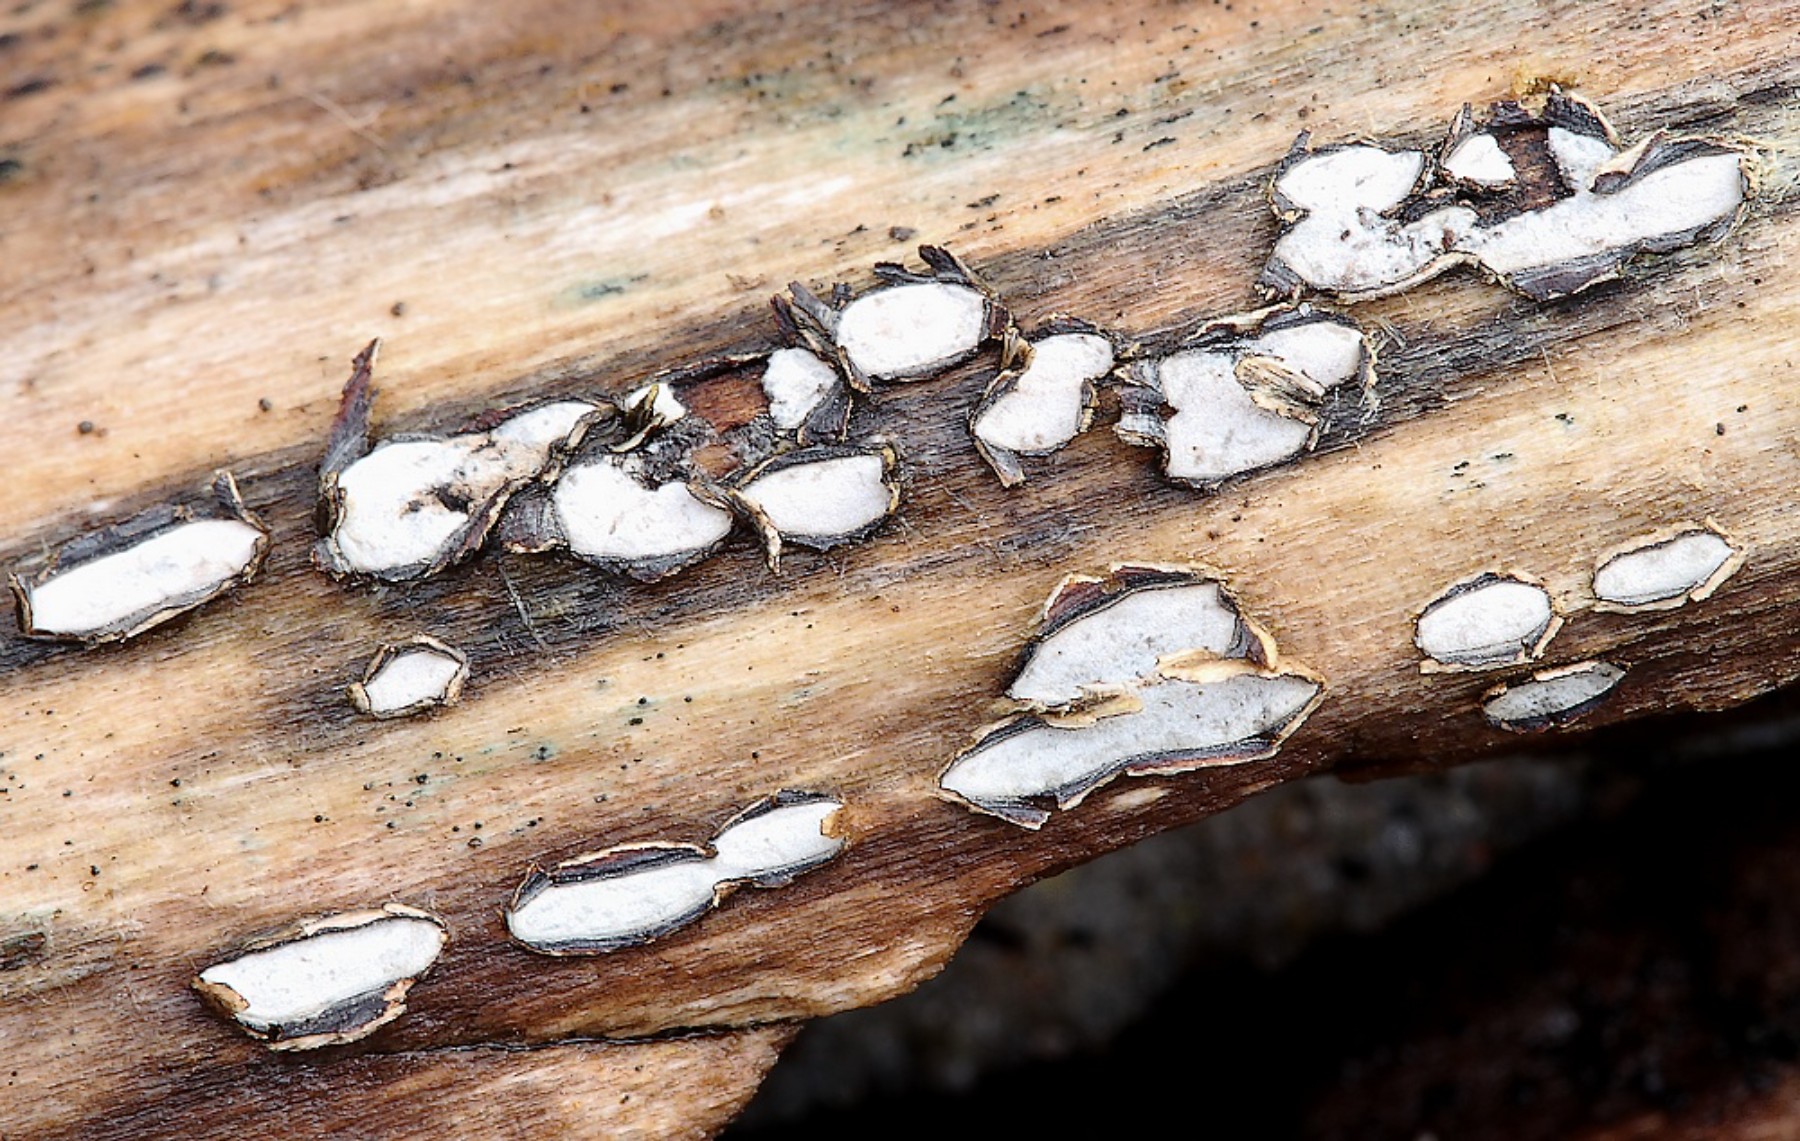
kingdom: Fungi
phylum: Ascomycota
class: Leotiomycetes
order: Chaetomellales
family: Marthamycetaceae
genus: Propolis
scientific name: Propolis farinosa
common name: almindelig vedsprængerskive
